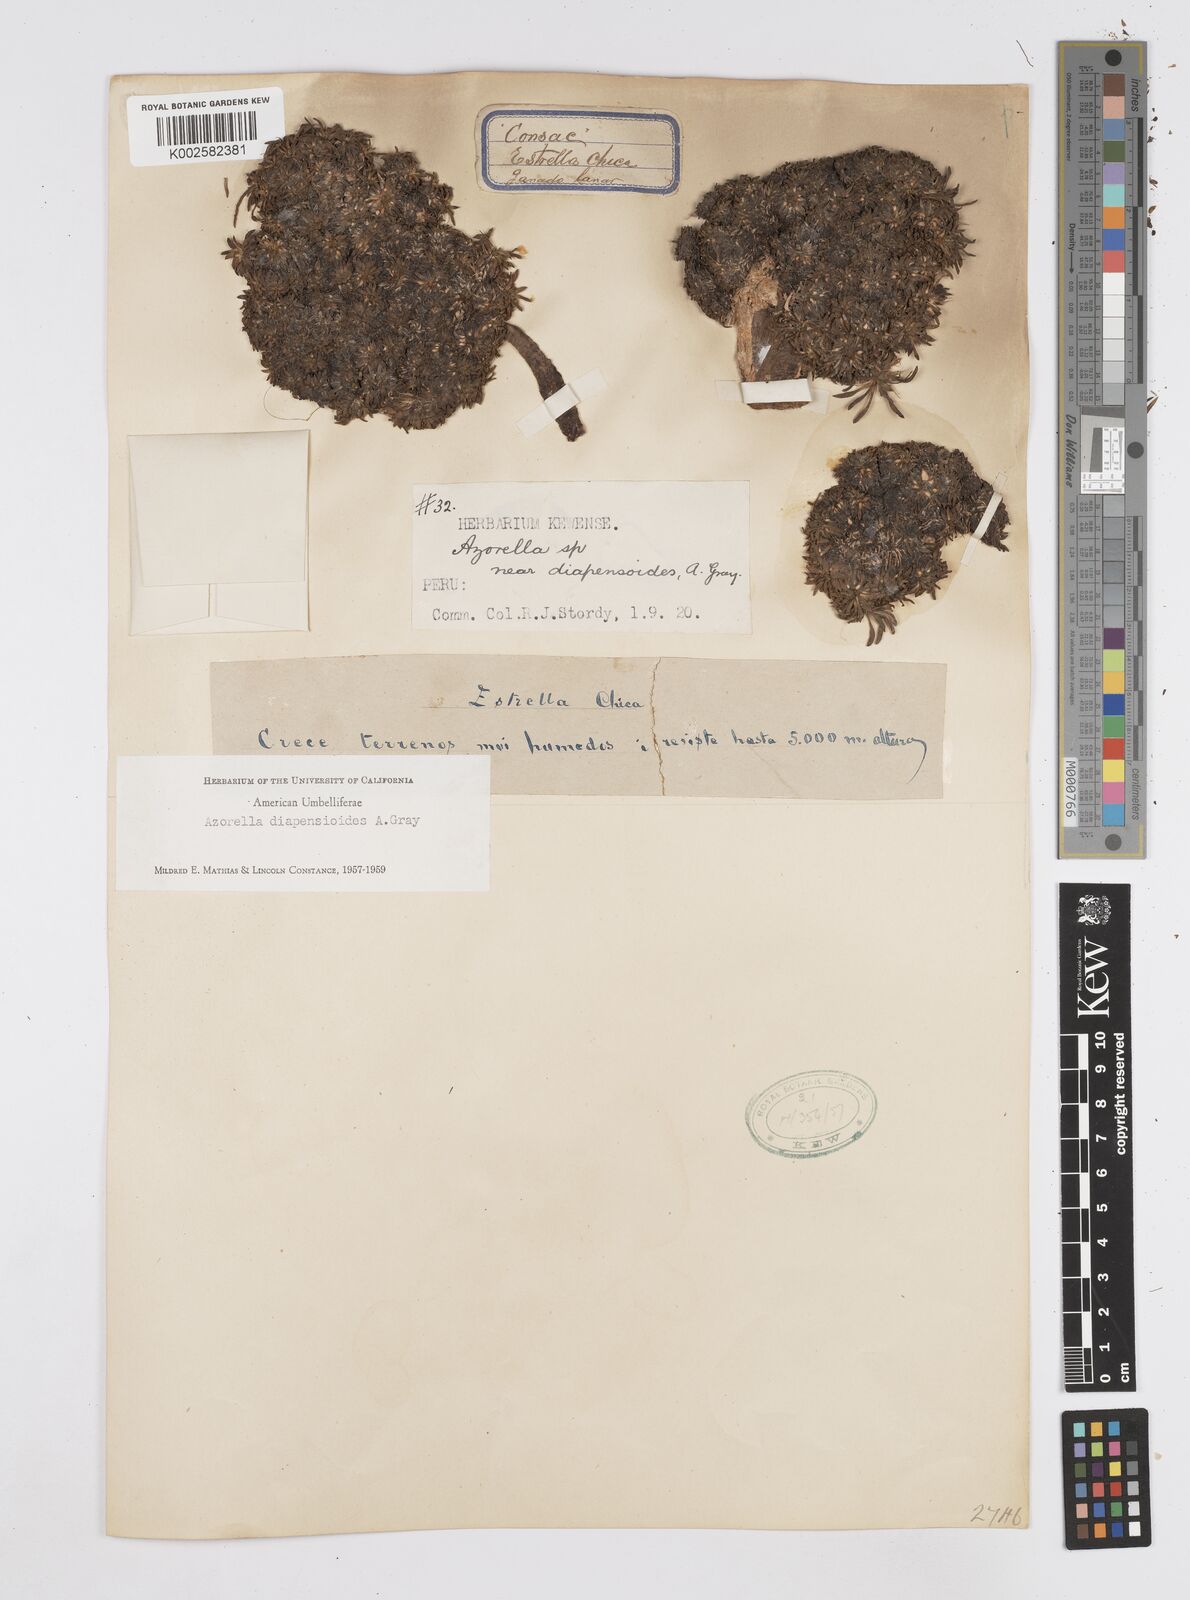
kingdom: Plantae
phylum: Tracheophyta
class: Magnoliopsida
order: Apiales
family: Apiaceae
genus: Azorella
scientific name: Azorella diapensioides
